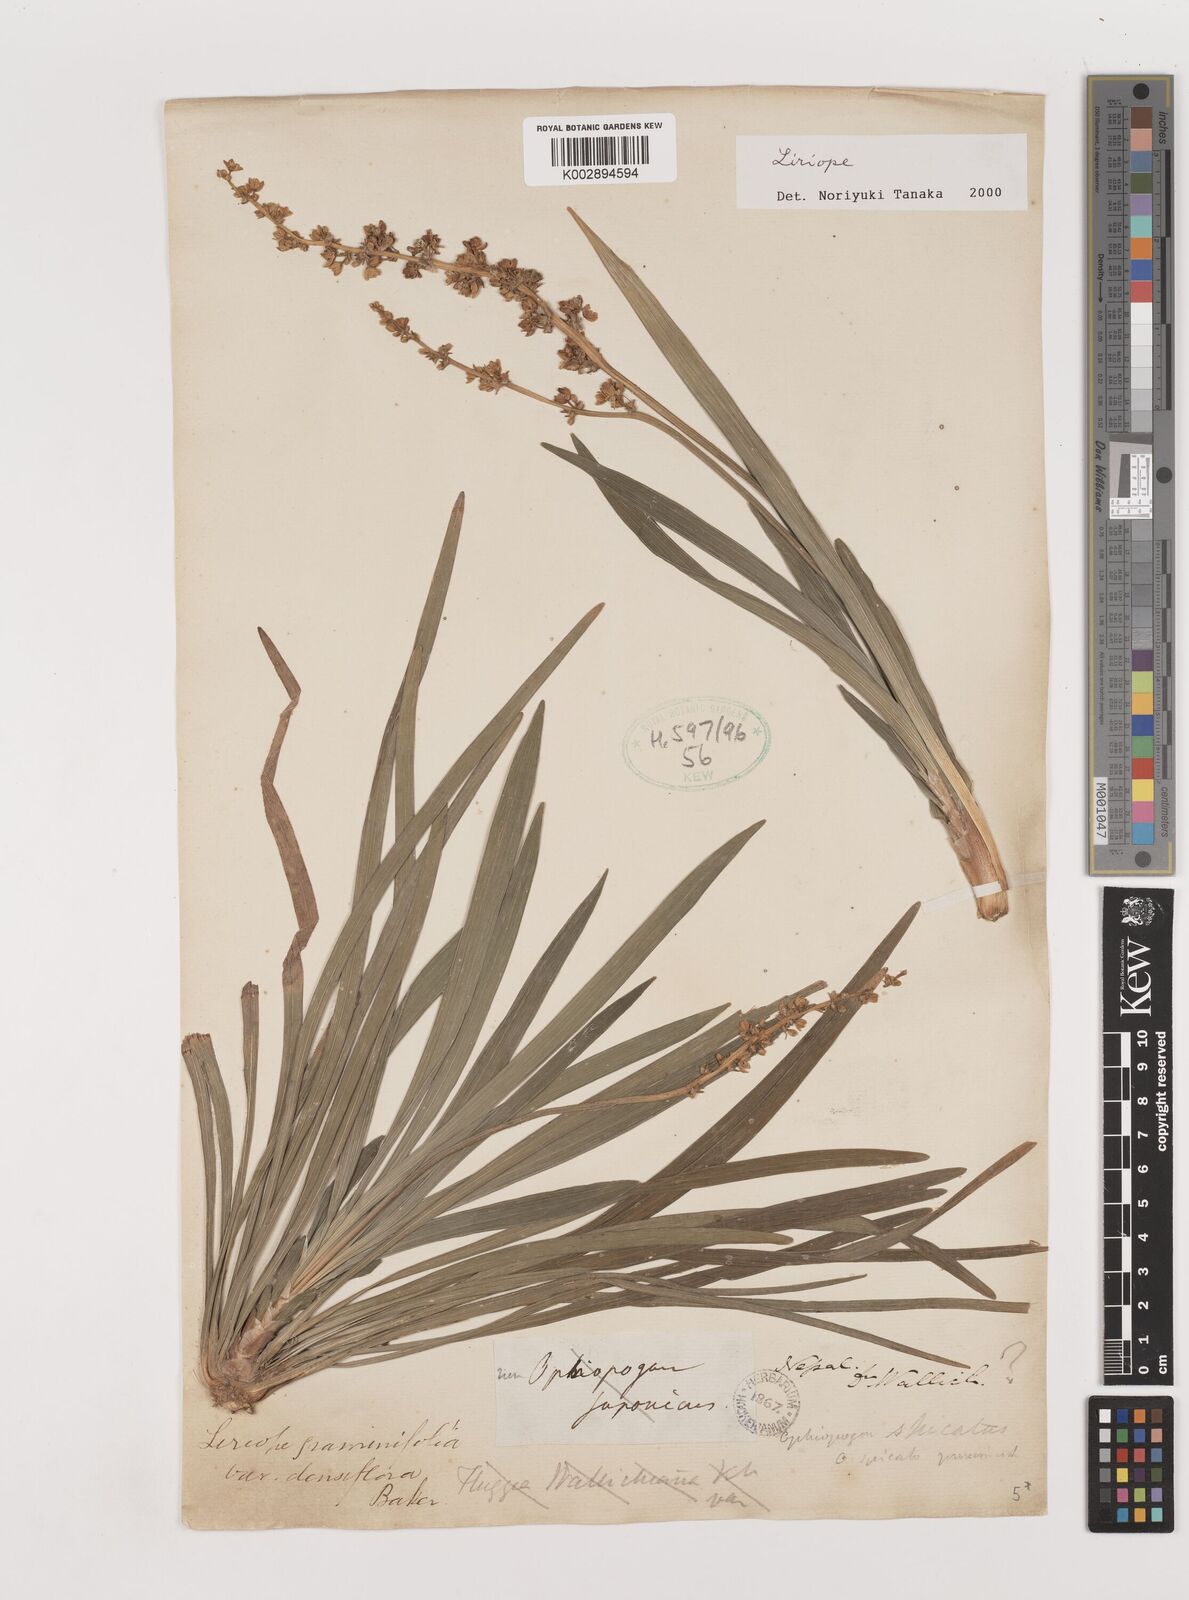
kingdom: Plantae
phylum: Tracheophyta
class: Liliopsida
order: Asparagales
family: Asparagaceae
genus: Liriope
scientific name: Liriope
